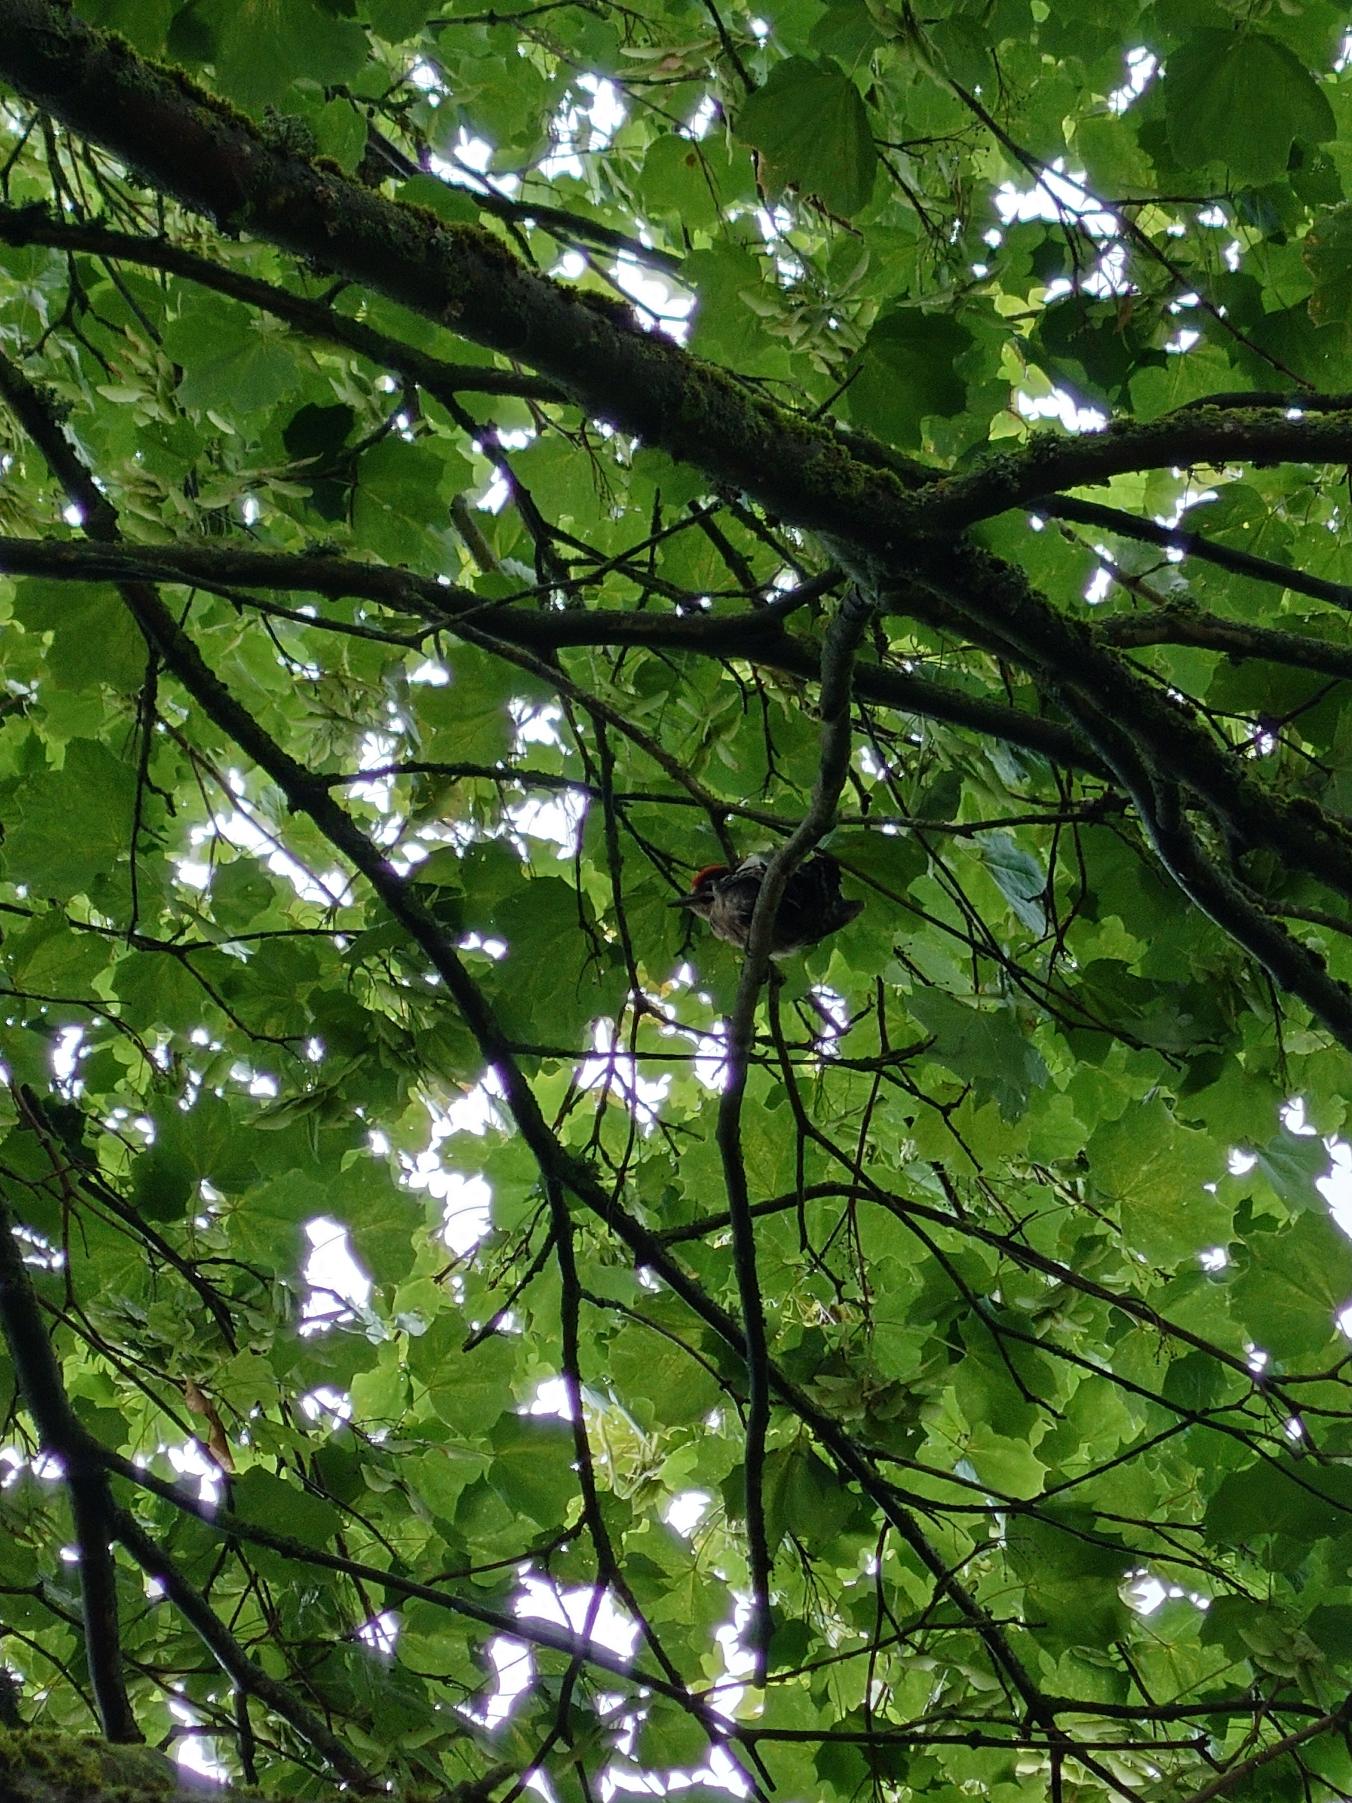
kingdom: Animalia
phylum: Chordata
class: Aves
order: Piciformes
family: Picidae
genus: Dendrocopos
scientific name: Dendrocopos major
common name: Stor flagspætte
